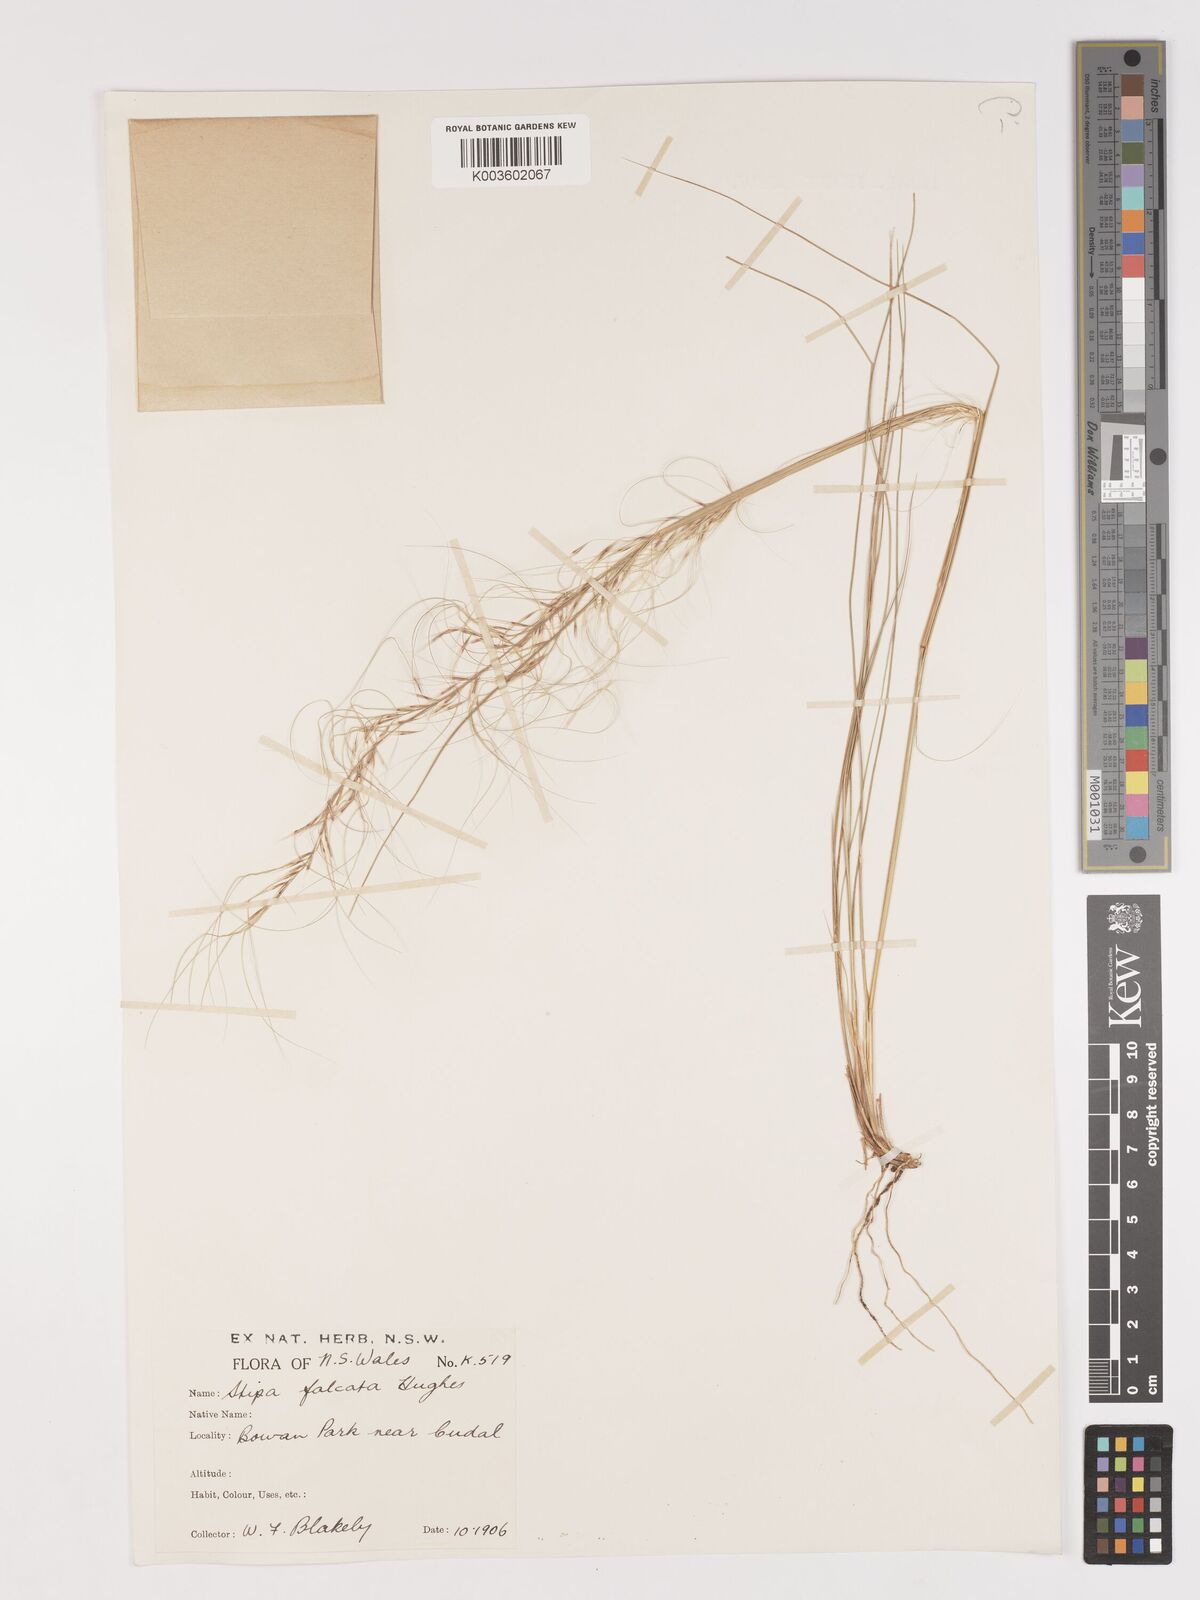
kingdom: Plantae
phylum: Tracheophyta
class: Liliopsida
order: Poales
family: Poaceae
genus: Austrostipa
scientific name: Austrostipa scabra
